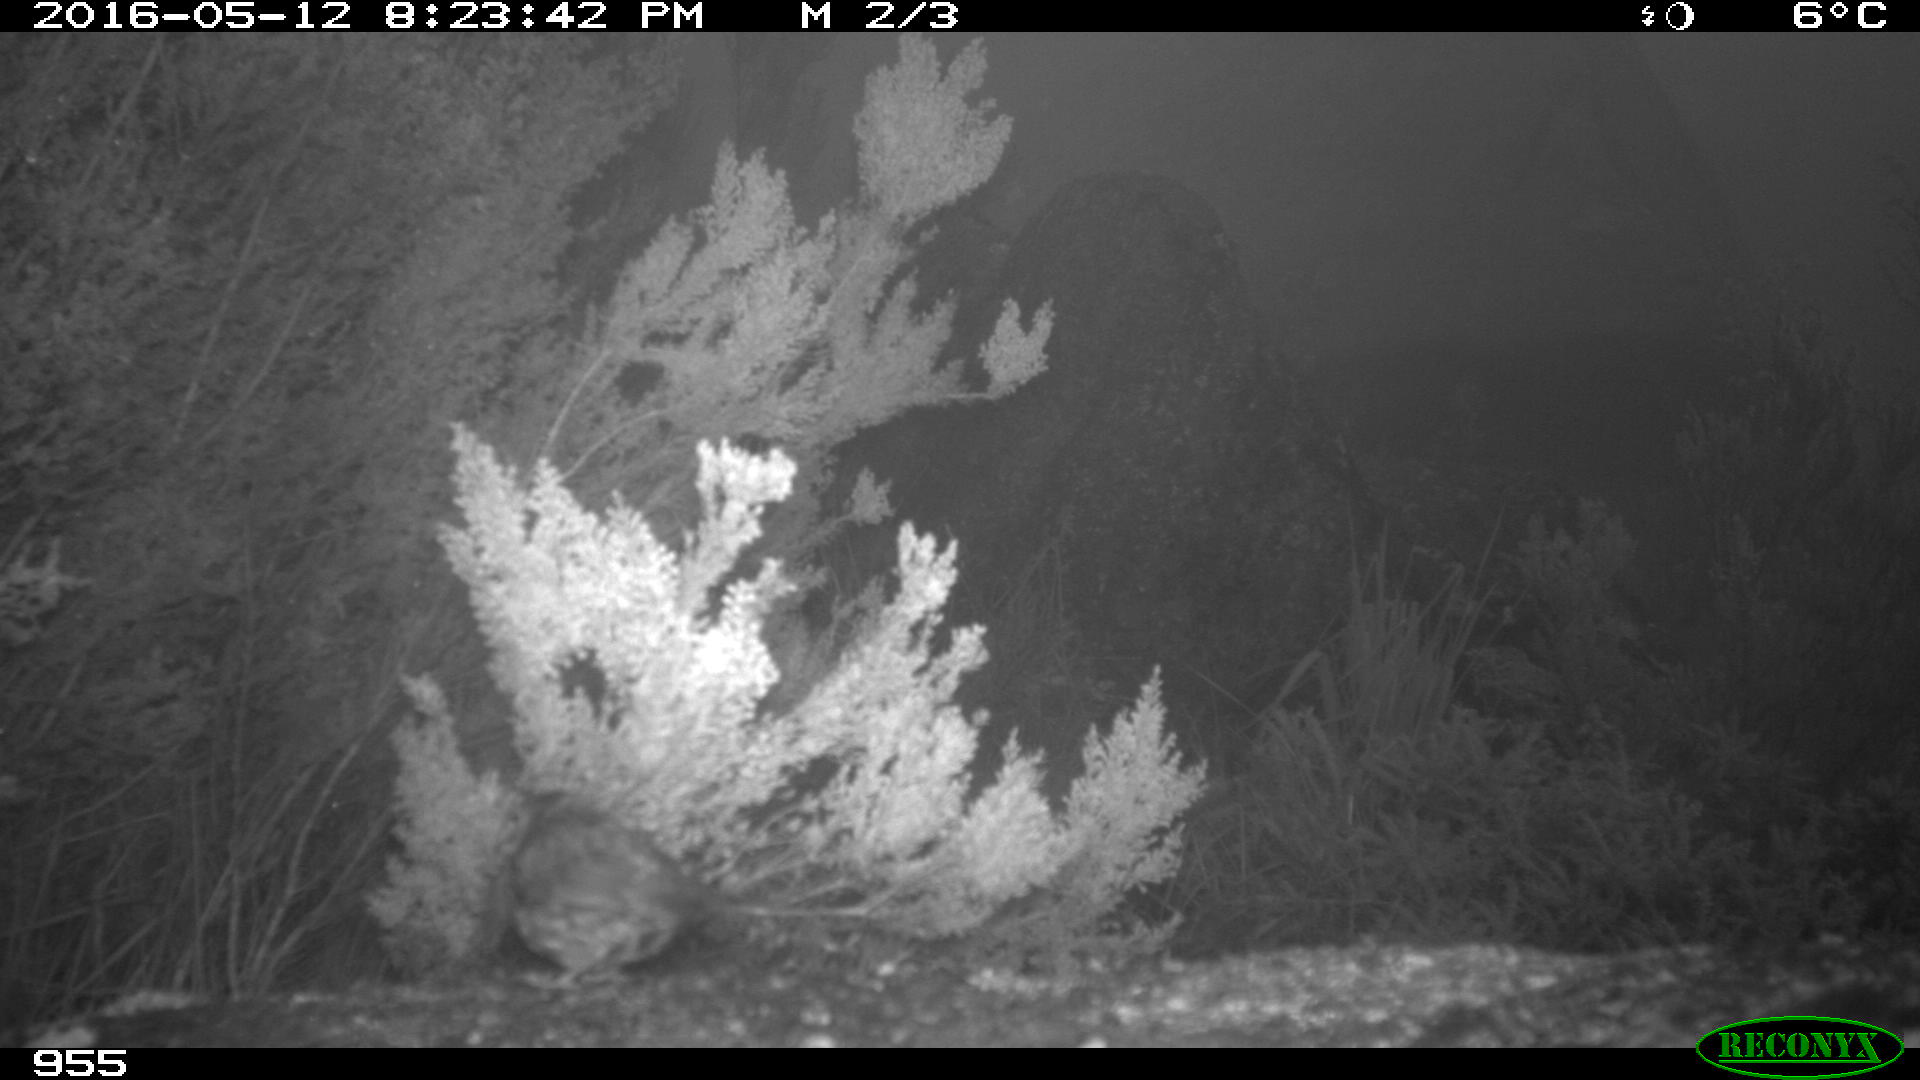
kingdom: Animalia
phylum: Chordata
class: Aves
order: Passeriformes
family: Prunellidae
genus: Prunella
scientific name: Prunella modularis
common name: Dunnock
